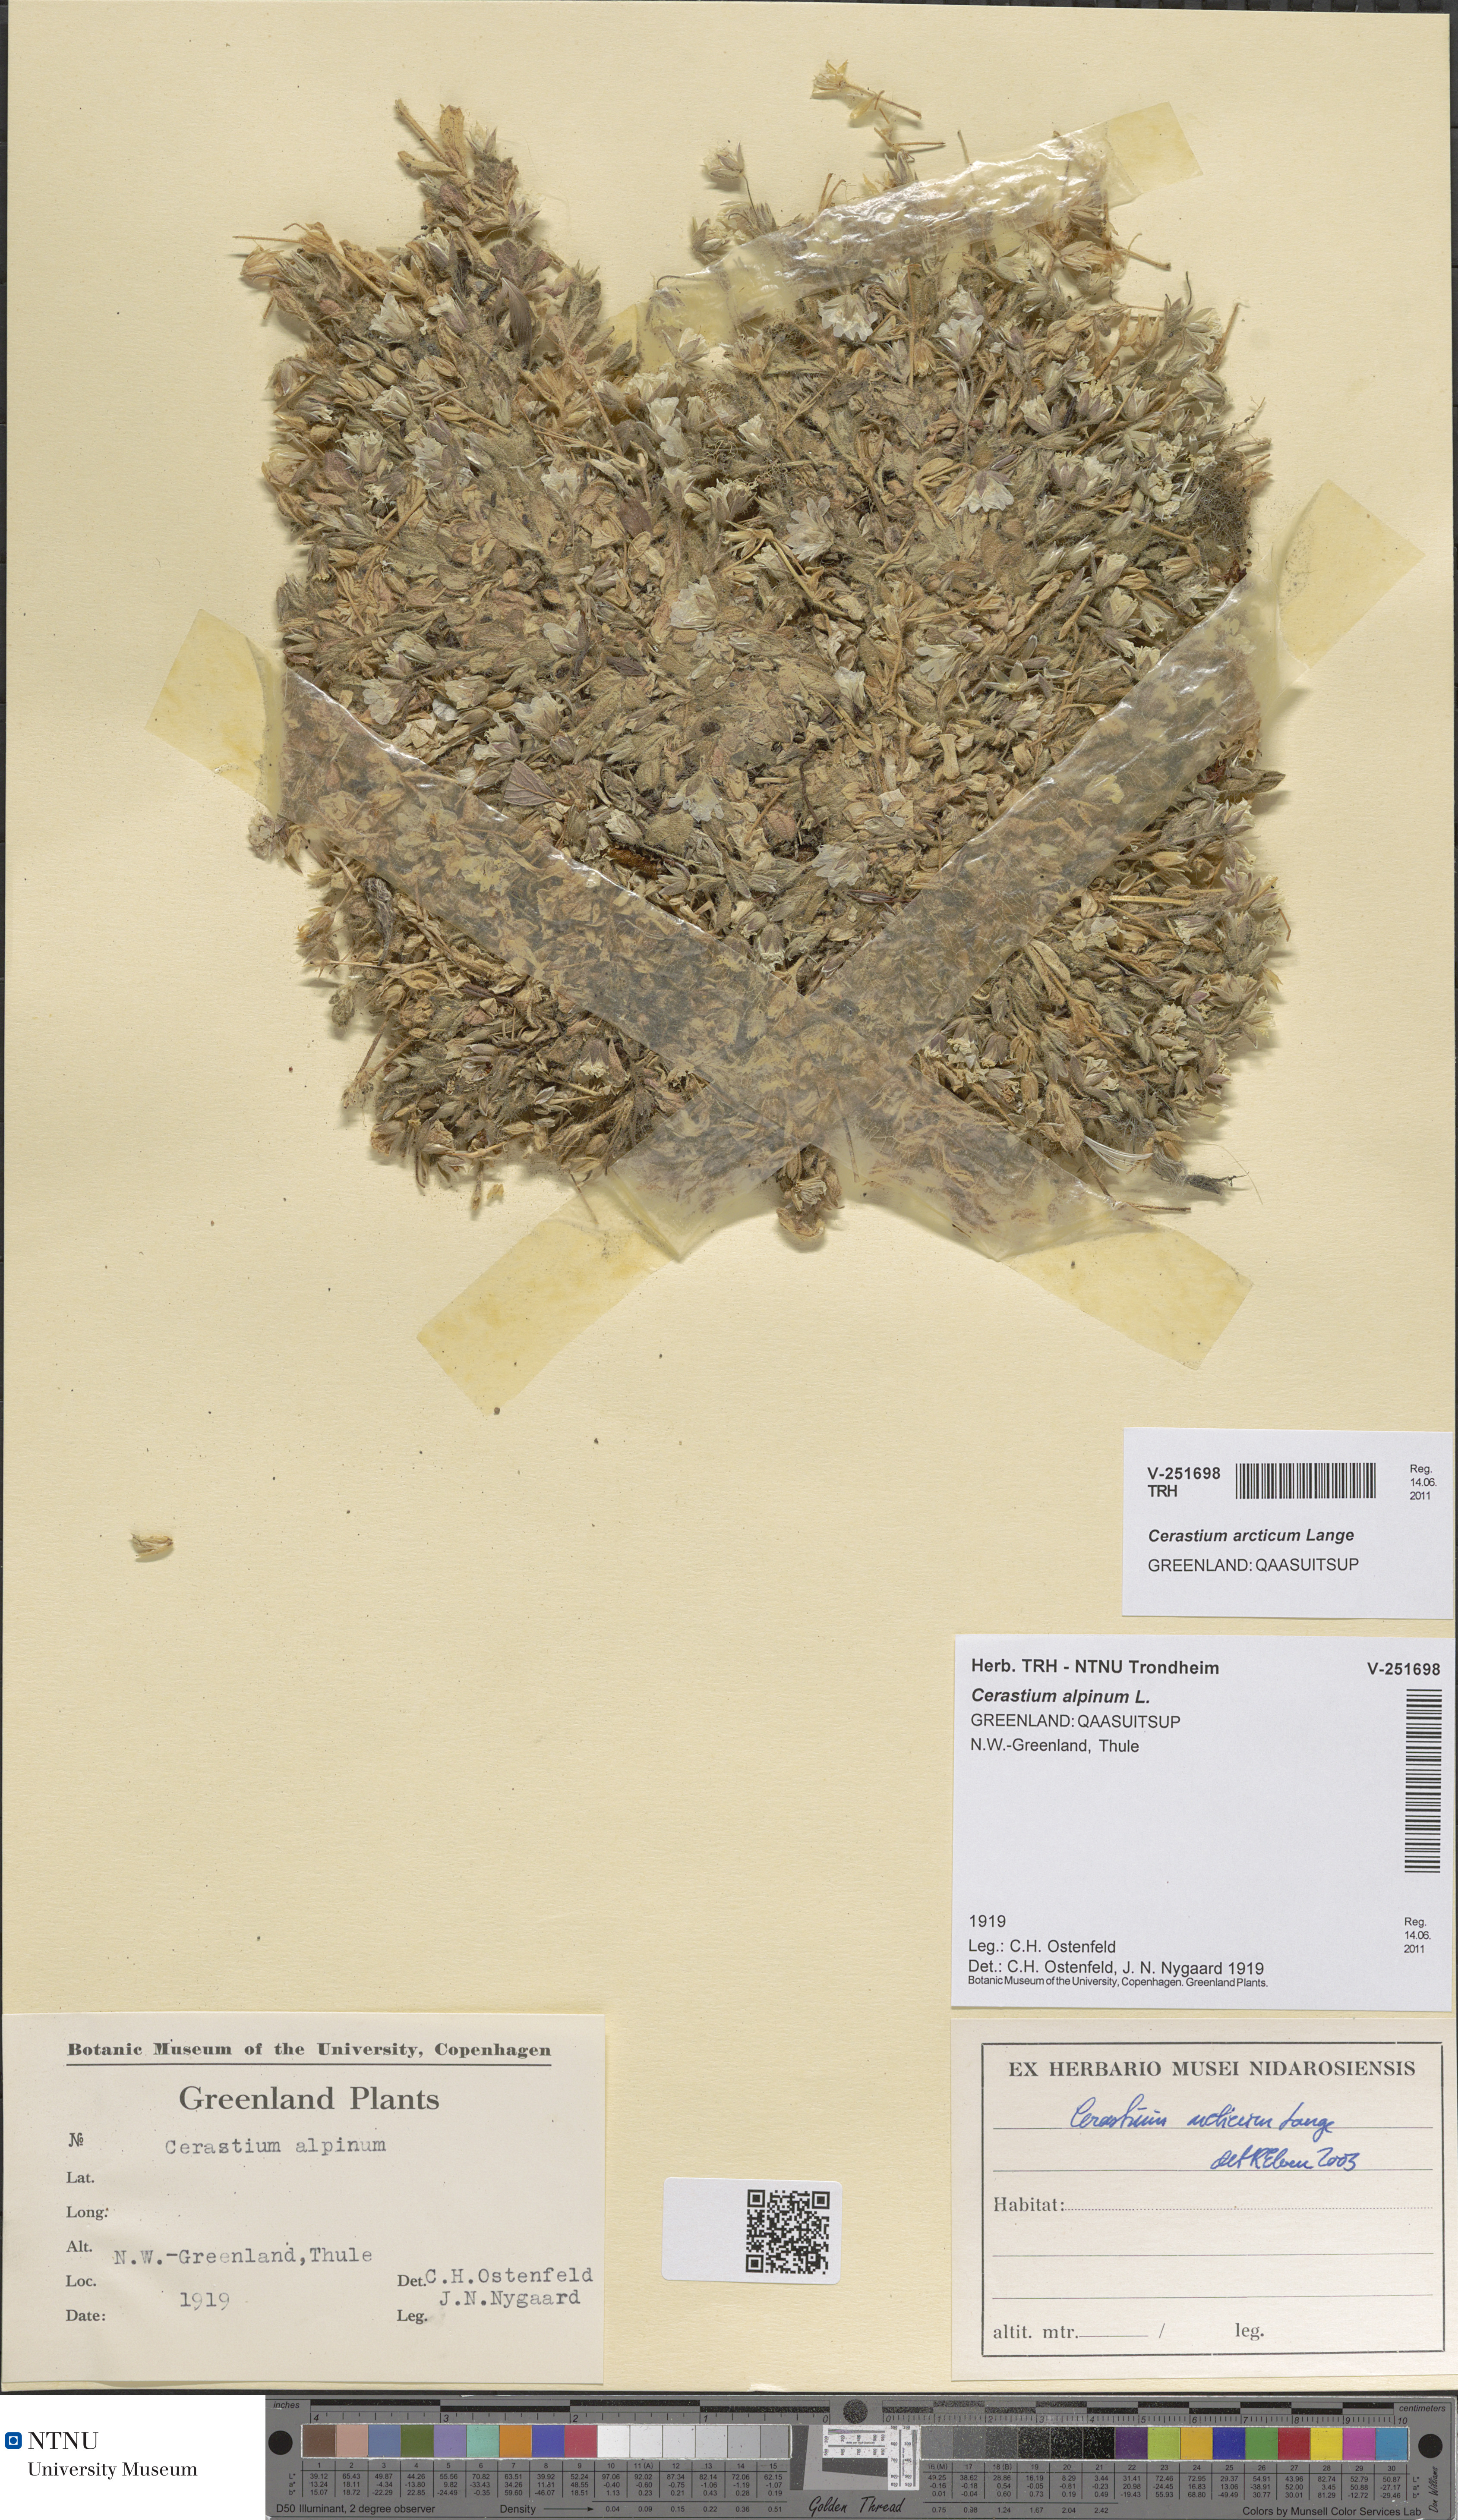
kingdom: Plantae
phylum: Tracheophyta
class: Magnoliopsida
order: Caryophyllales
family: Caryophyllaceae
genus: Cerastium
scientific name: Cerastium arcticum
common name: Arctic mouse-ear
